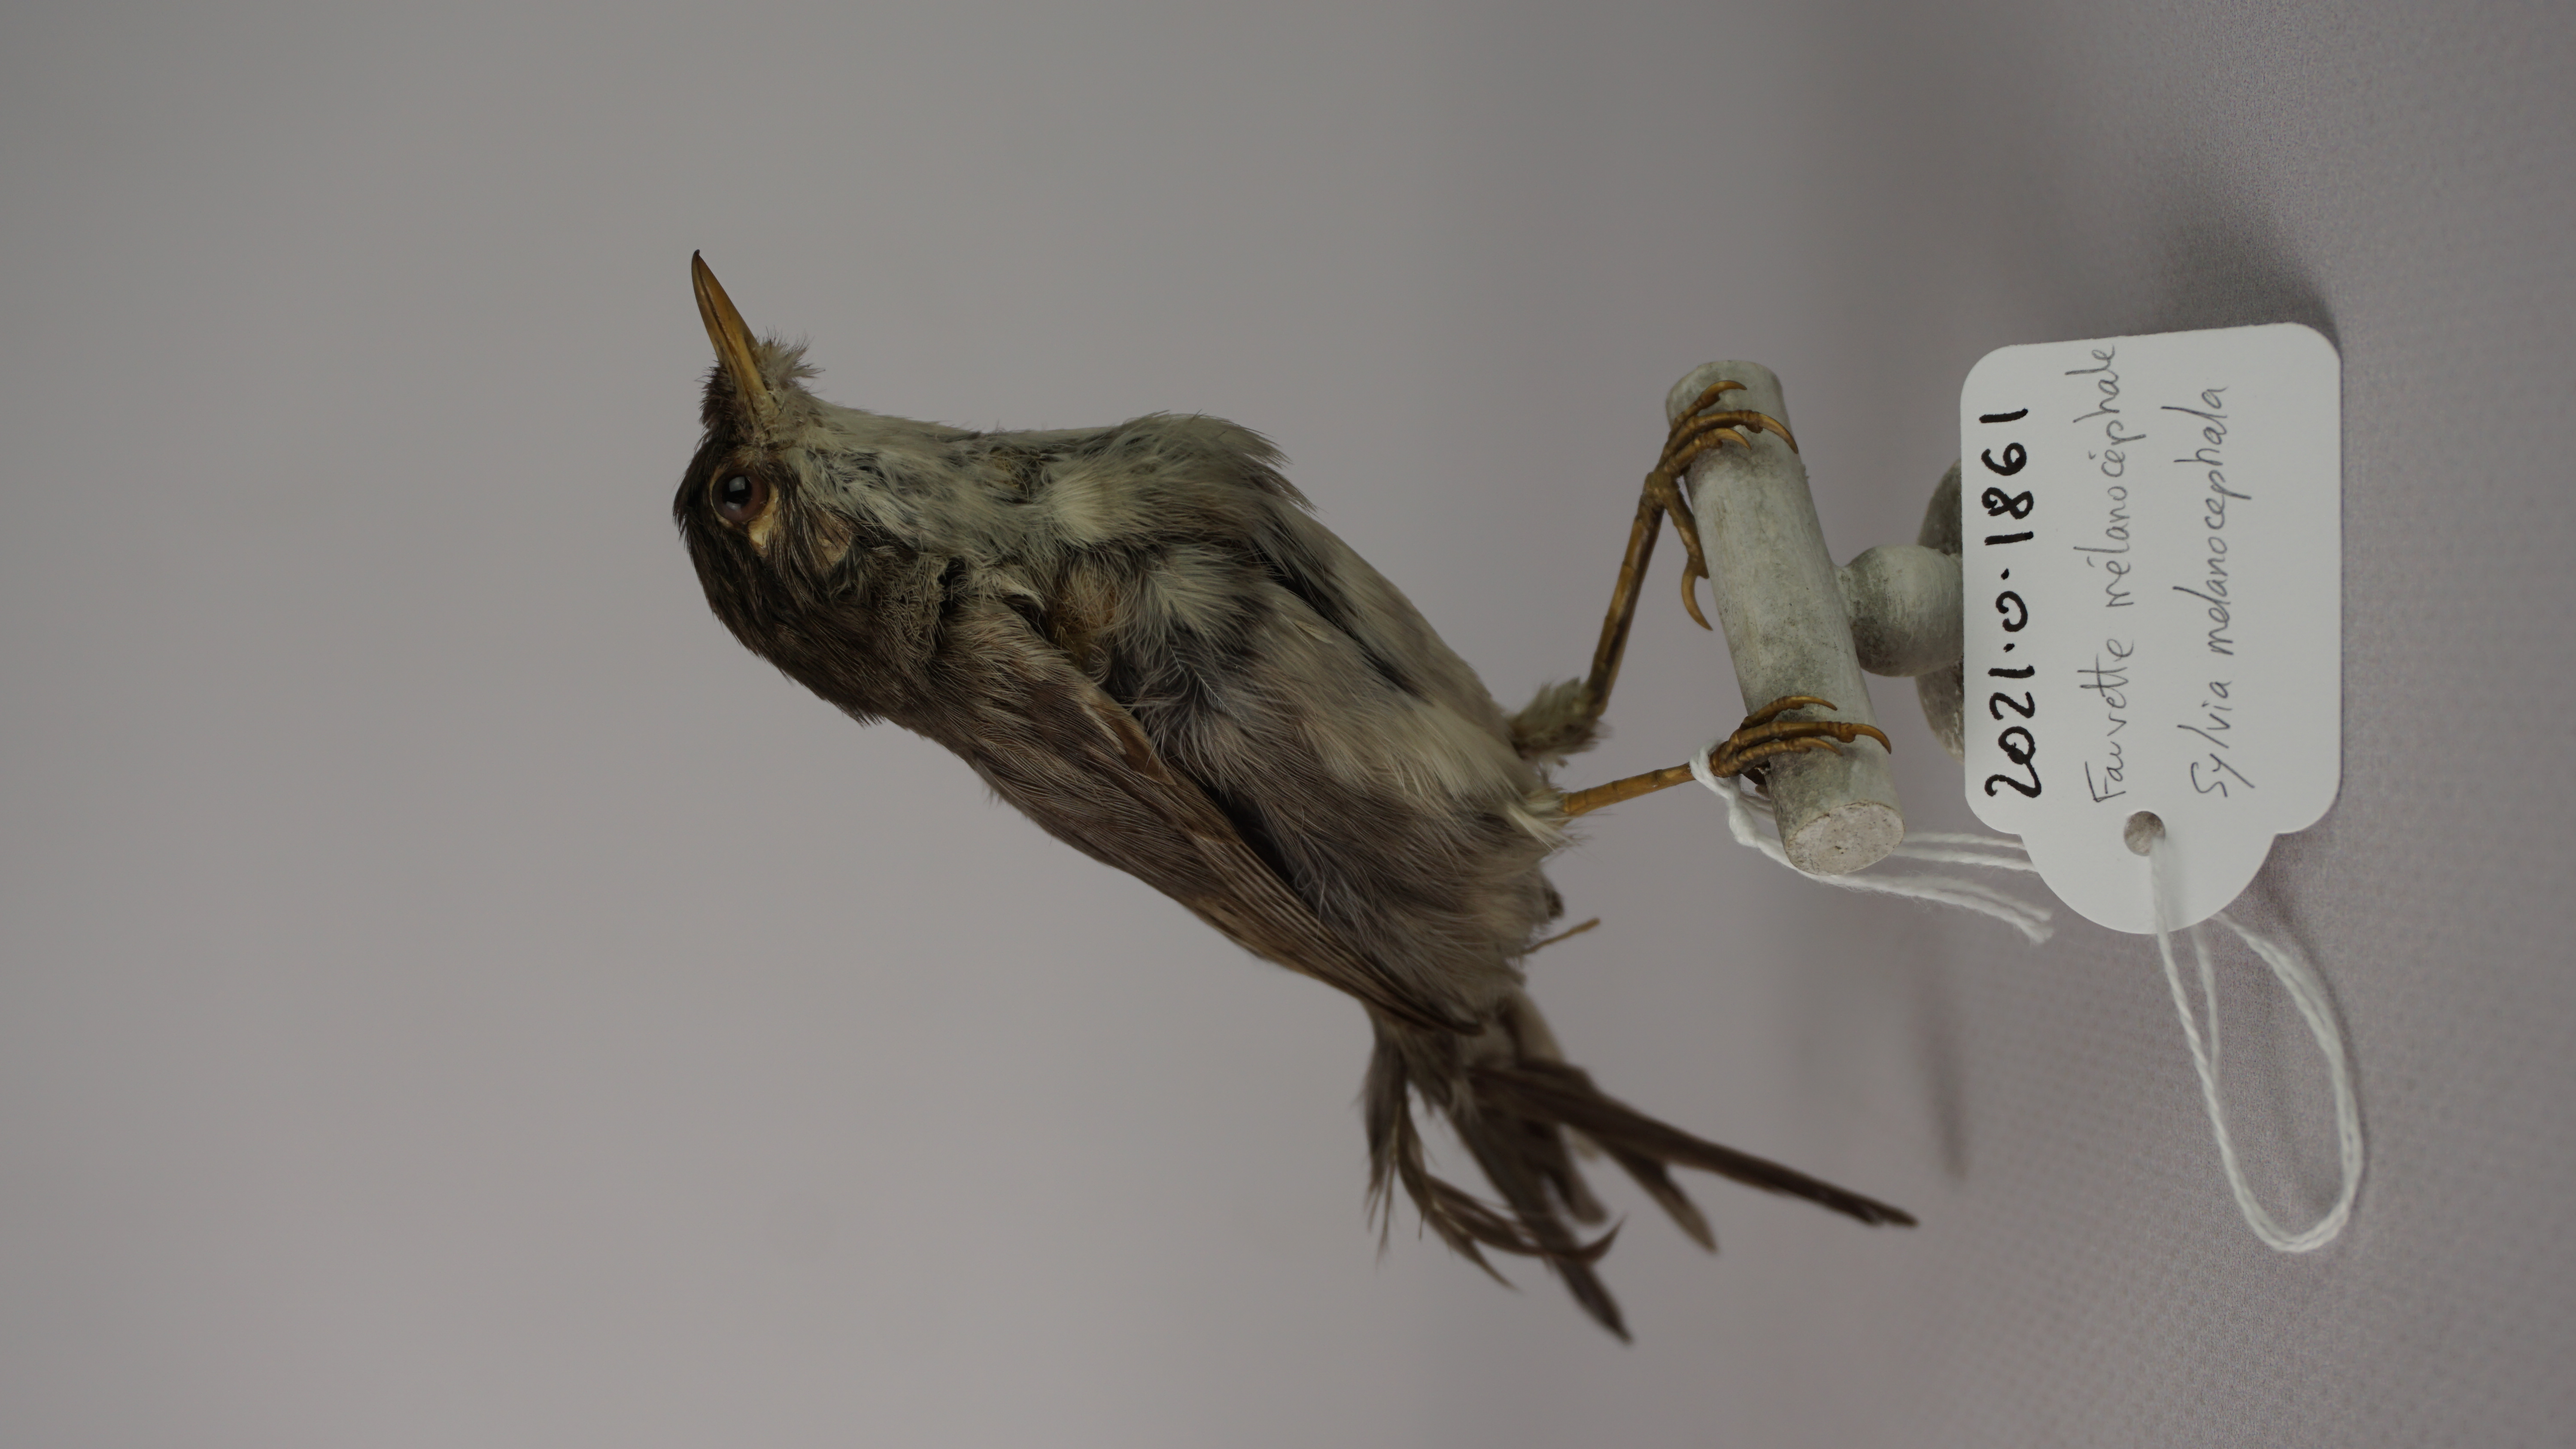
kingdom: Animalia
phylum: Chordata
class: Aves
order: Passeriformes
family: Sylviidae
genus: Sylvia
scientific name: Sylvia melanocephala
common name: Sardinian warbler
